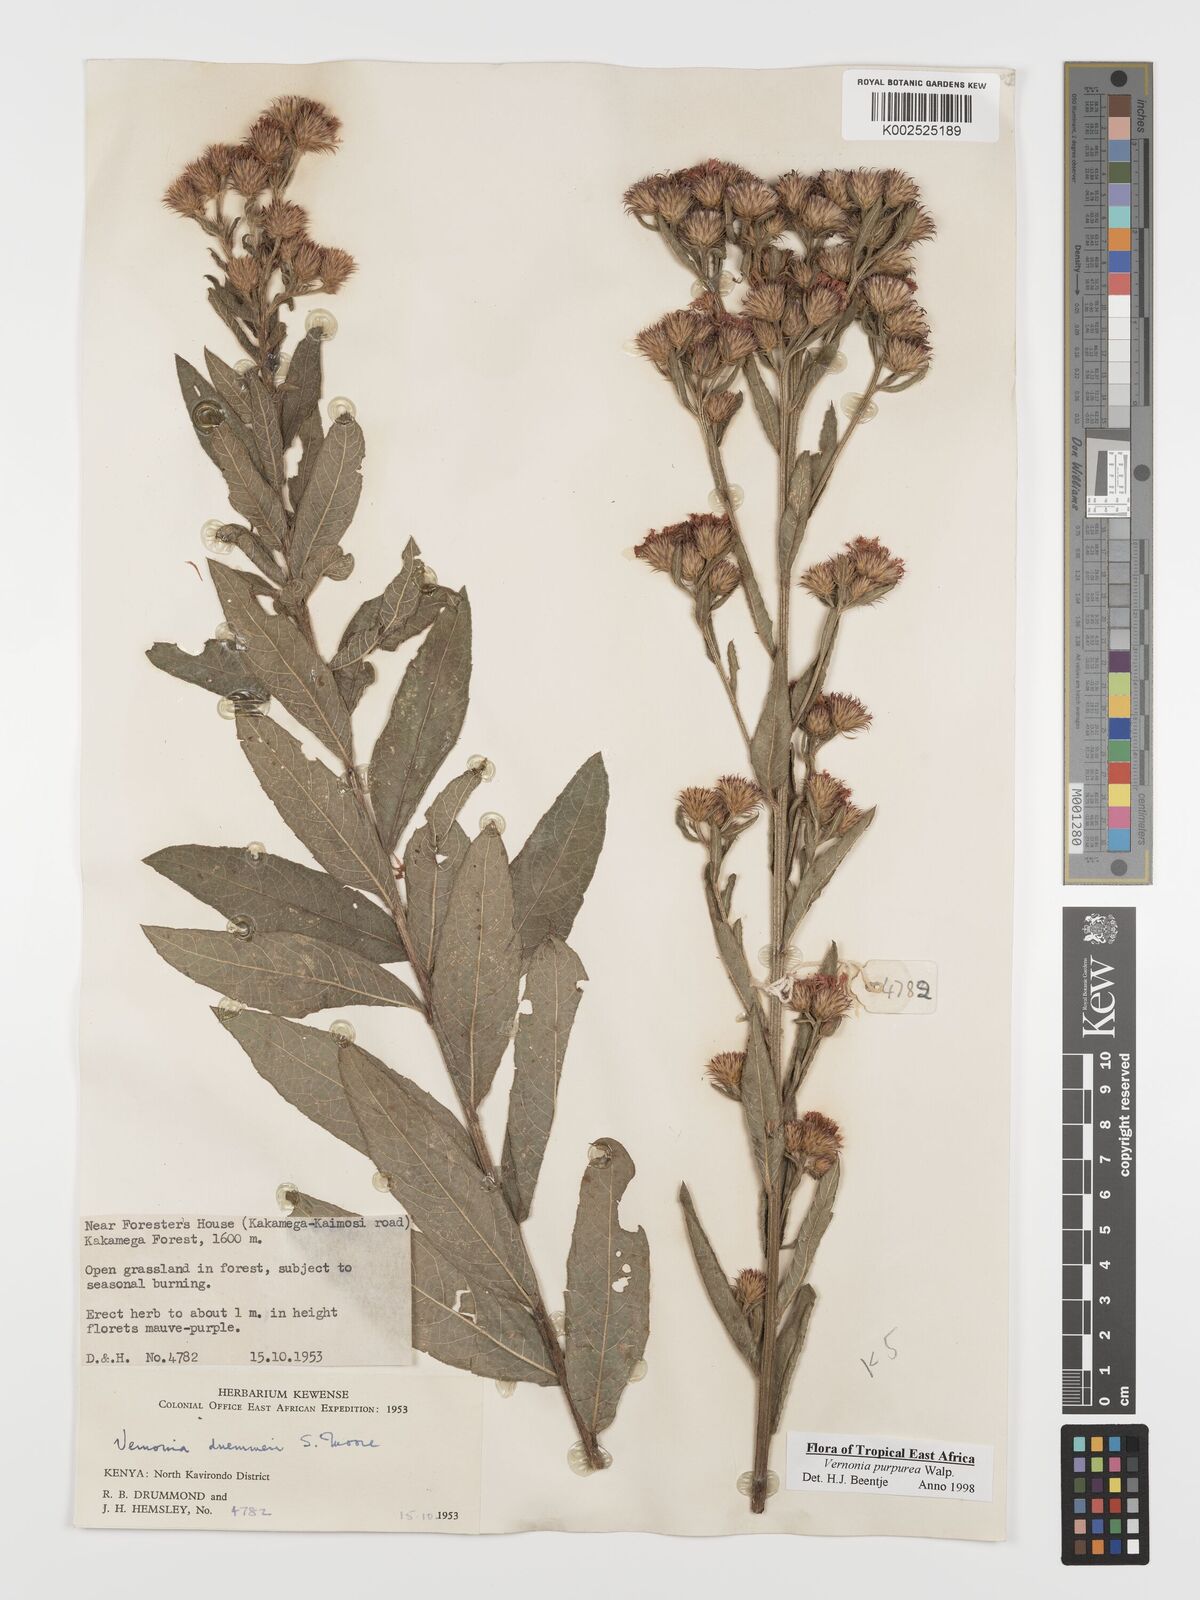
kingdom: Plantae
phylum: Tracheophyta
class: Magnoliopsida
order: Asterales
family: Asteraceae
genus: Nothovernonia
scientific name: Nothovernonia purpurea
